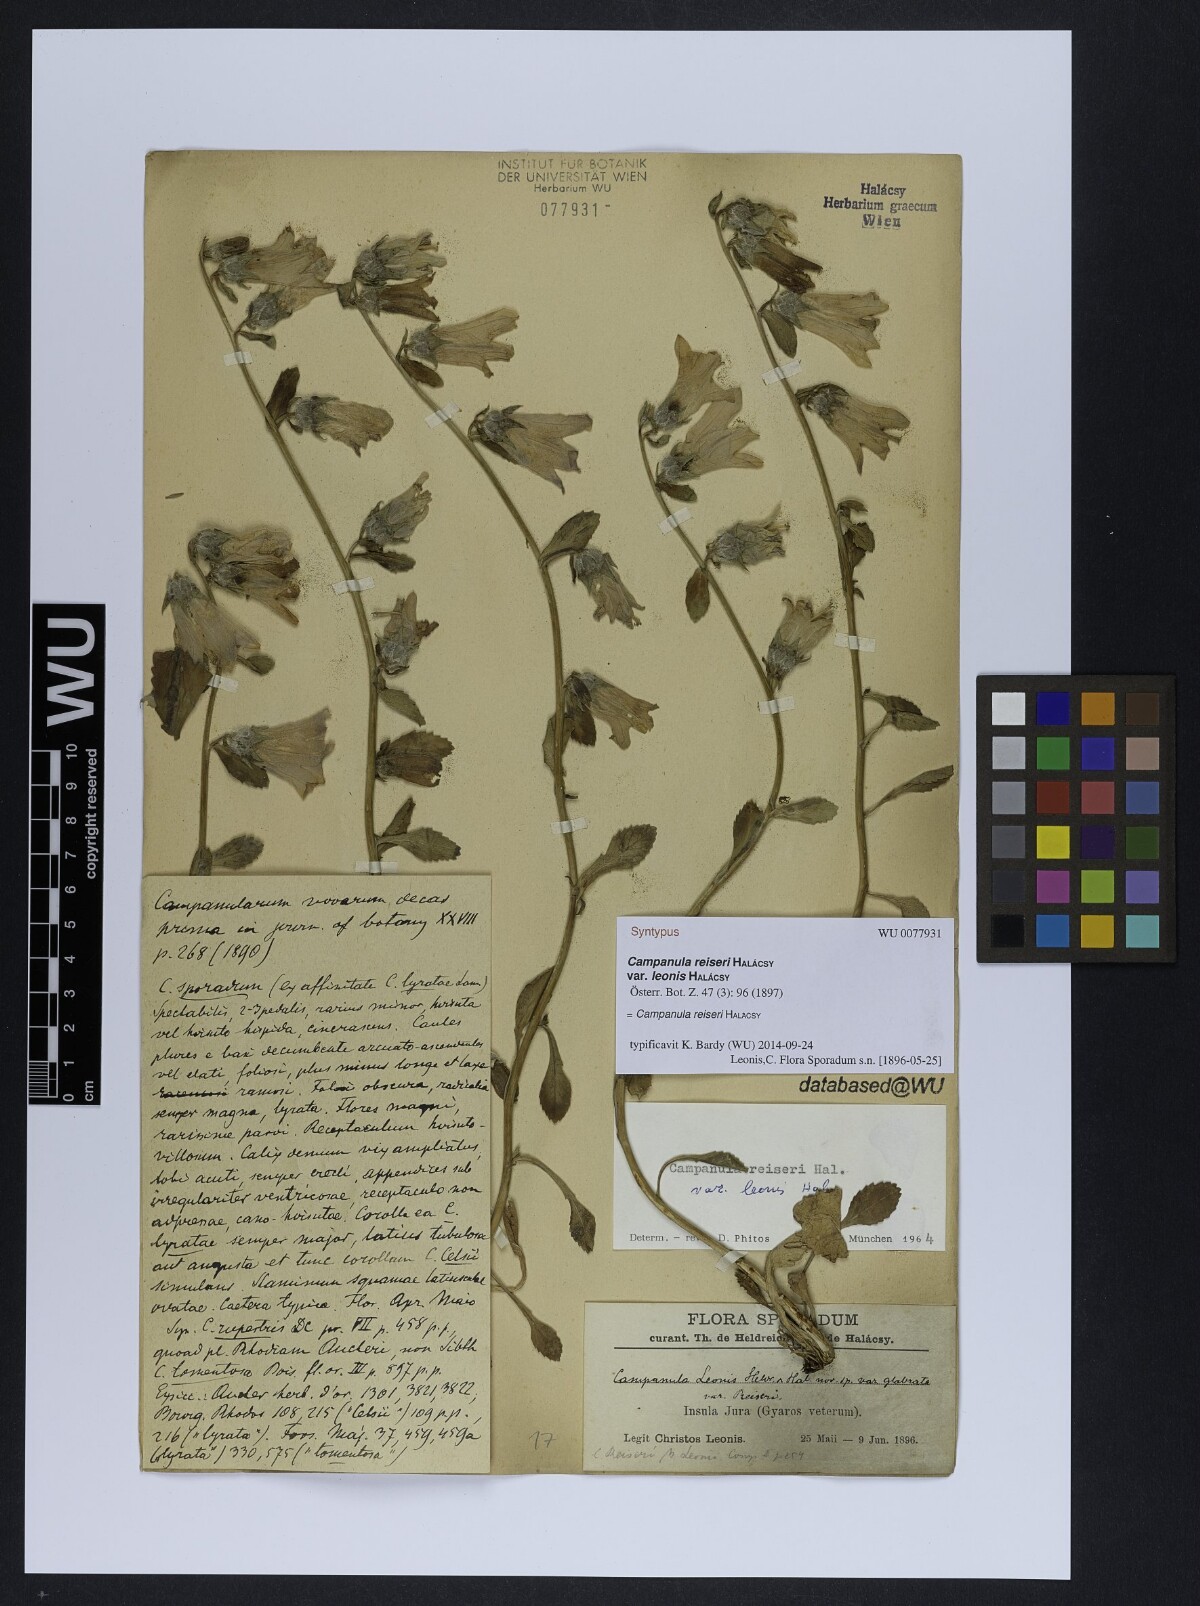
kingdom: Plantae
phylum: Tracheophyta
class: Magnoliopsida
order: Asterales
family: Campanulaceae
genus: Campanula
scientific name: Campanula reiseri
